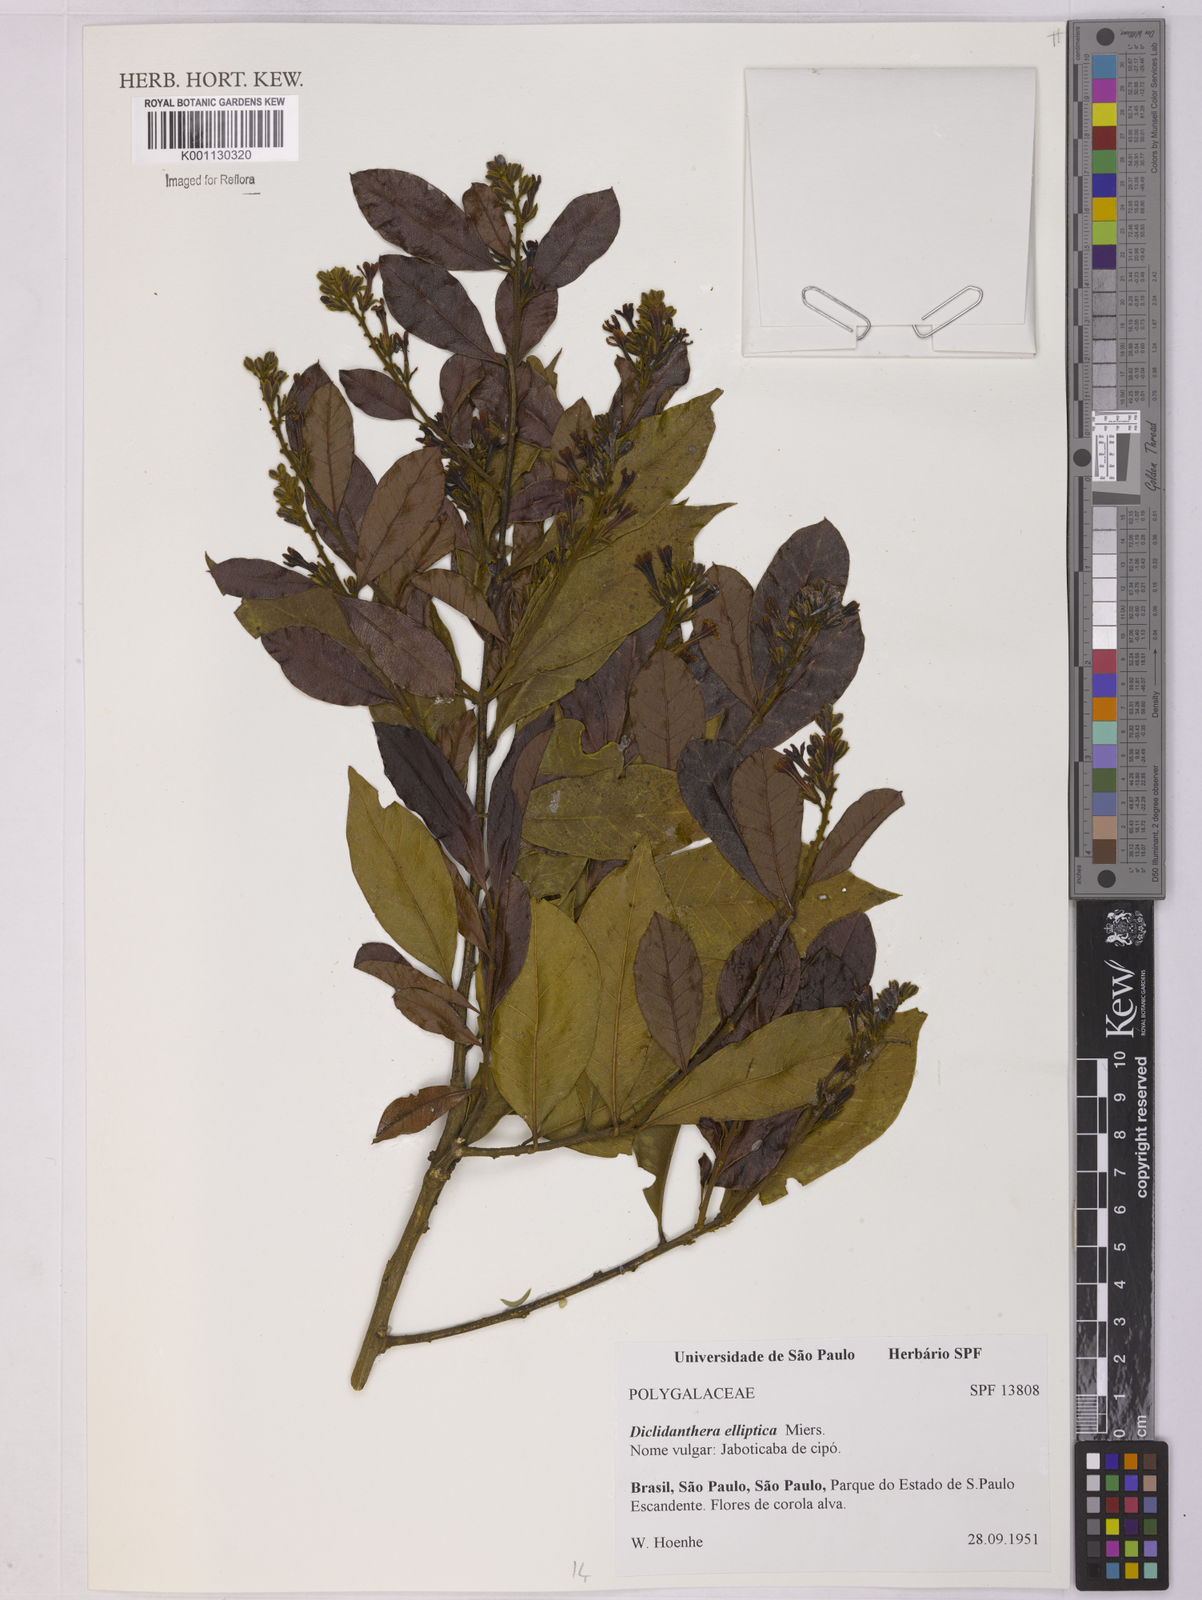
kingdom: Plantae
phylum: Tracheophyta
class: Magnoliopsida
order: Fabales
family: Polygalaceae
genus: Diclidanthera
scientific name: Diclidanthera laurifolia
